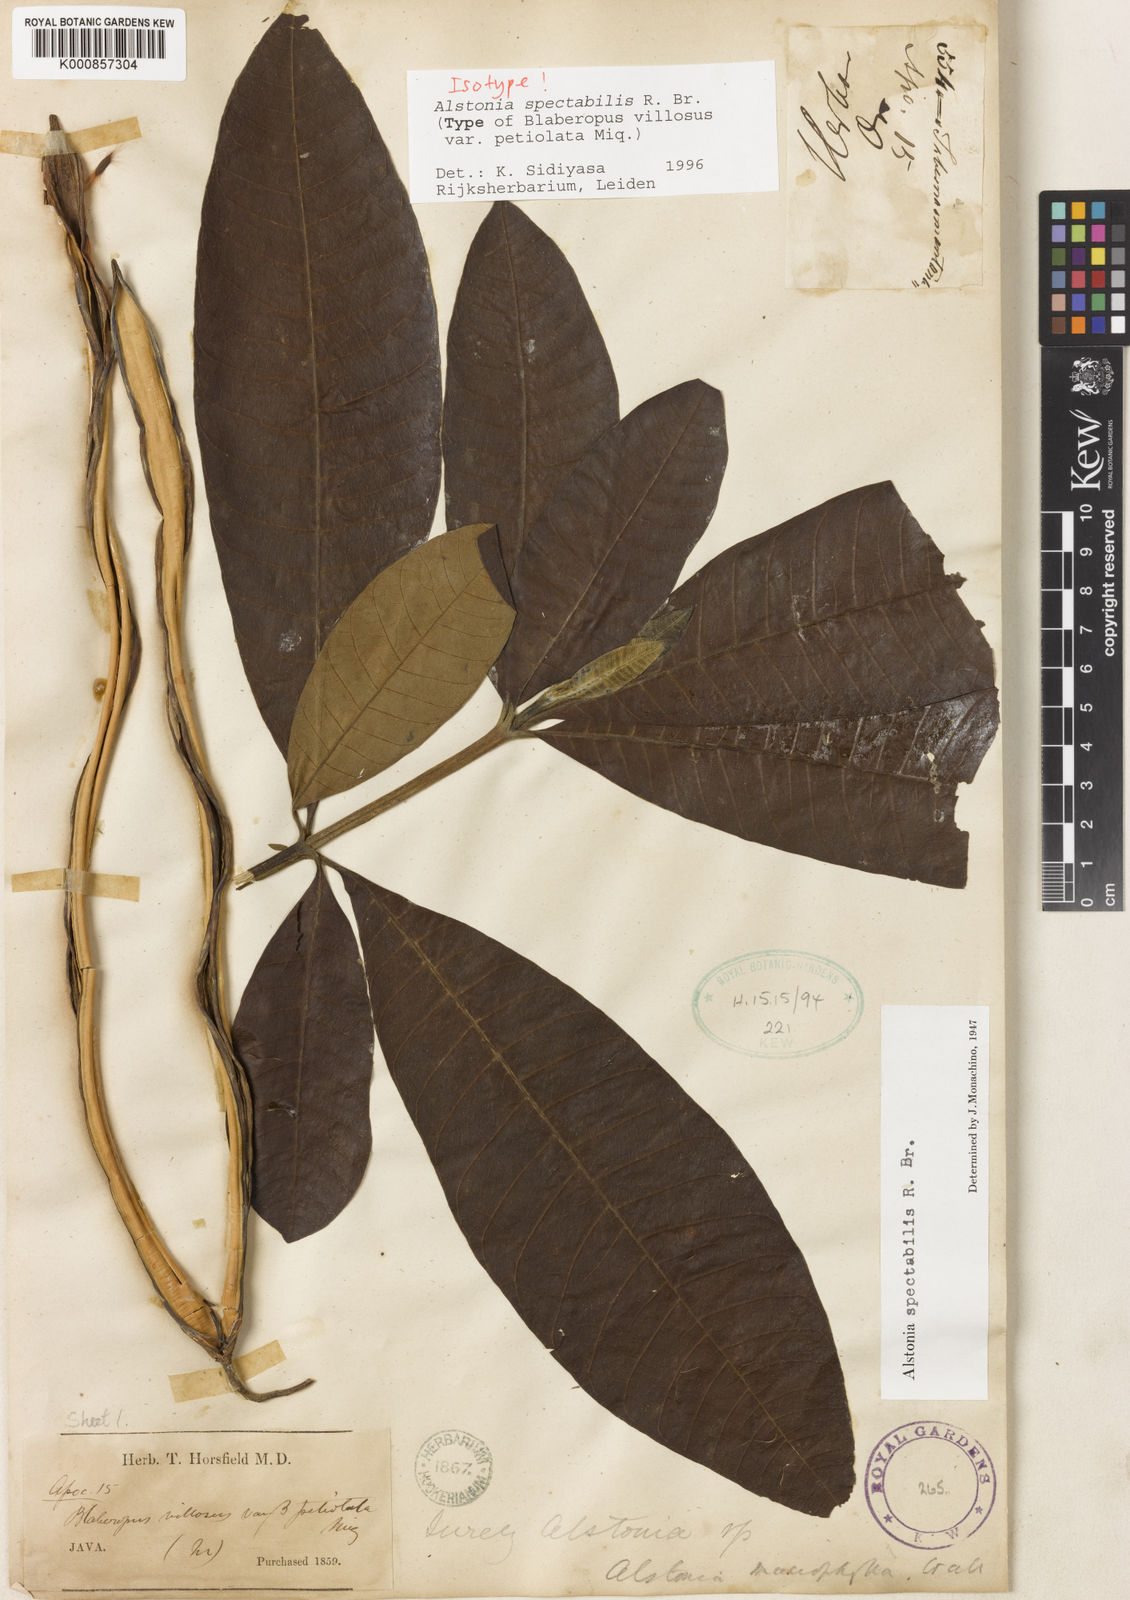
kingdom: Plantae
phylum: Tracheophyta
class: Magnoliopsida
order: Gentianales
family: Apocynaceae
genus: Alstonia
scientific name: Alstonia spectabilis
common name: Milky yellowwood
